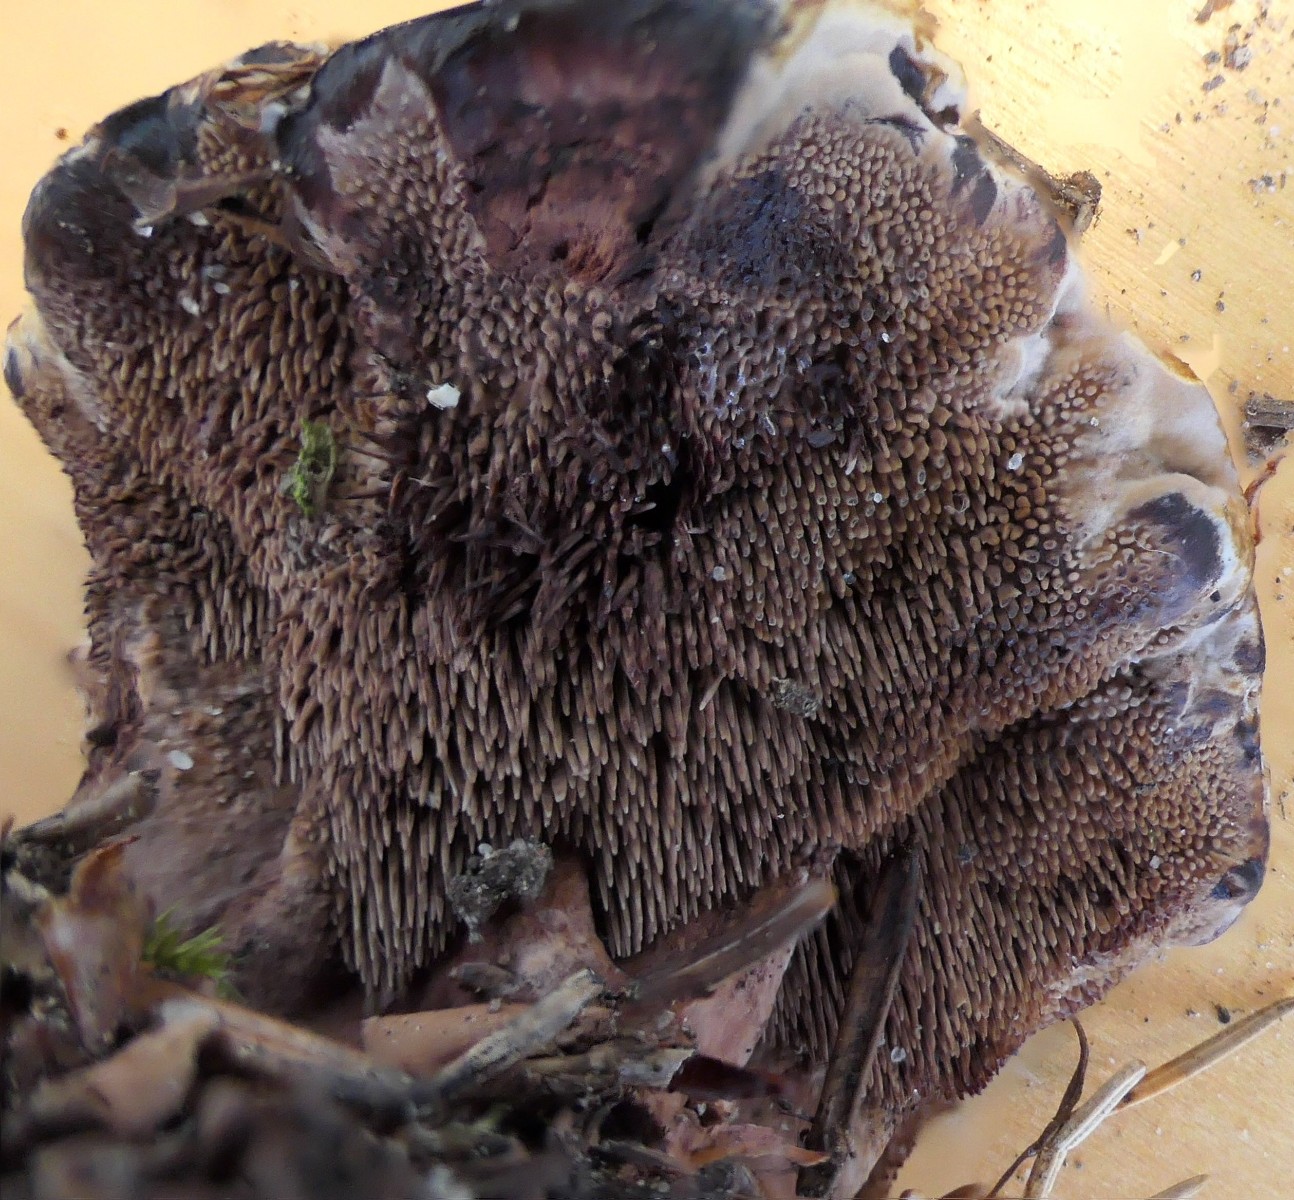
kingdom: Fungi
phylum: Basidiomycota
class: Agaricomycetes
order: Thelephorales
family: Bankeraceae
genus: Hydnellum
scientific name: Hydnellum concrescens
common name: Zoned tooth
